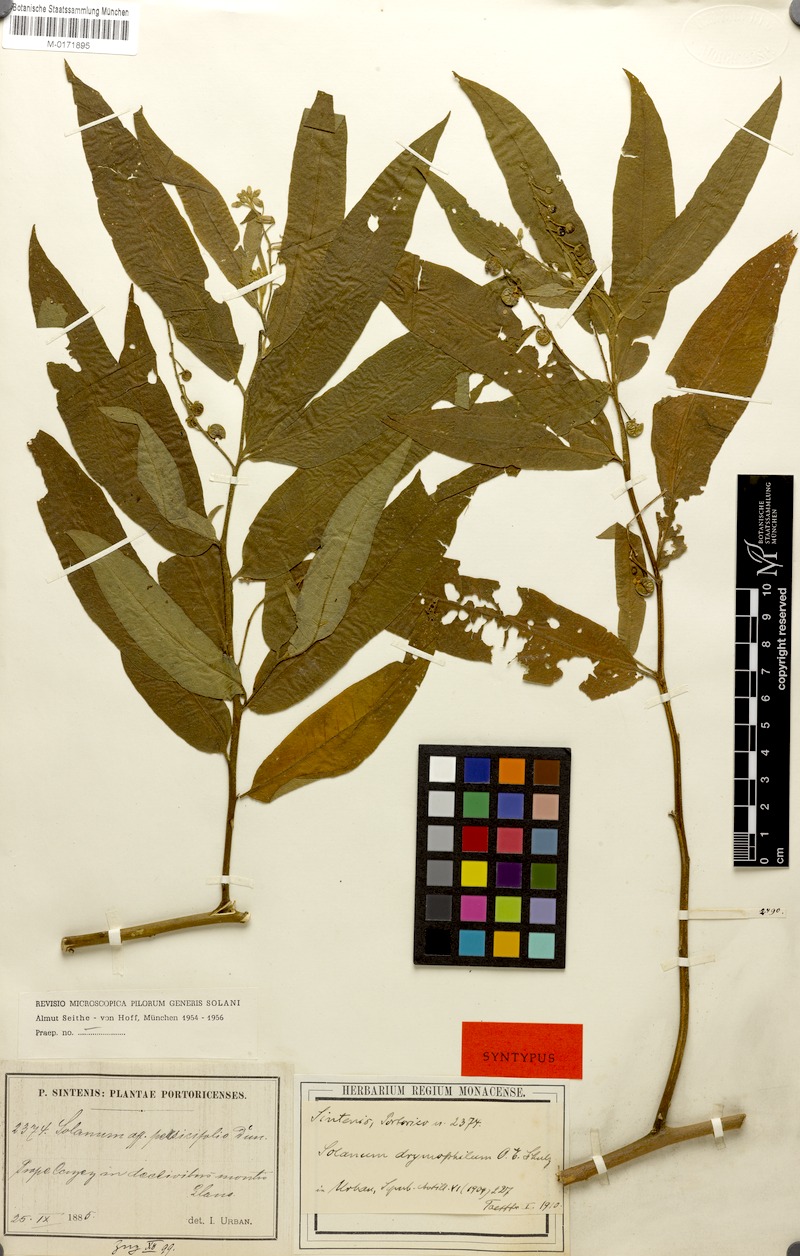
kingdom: Plantae
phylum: Tracheophyta
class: Magnoliopsida
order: Solanales
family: Solanaceae
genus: Solanum
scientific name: Solanum ensifolium
